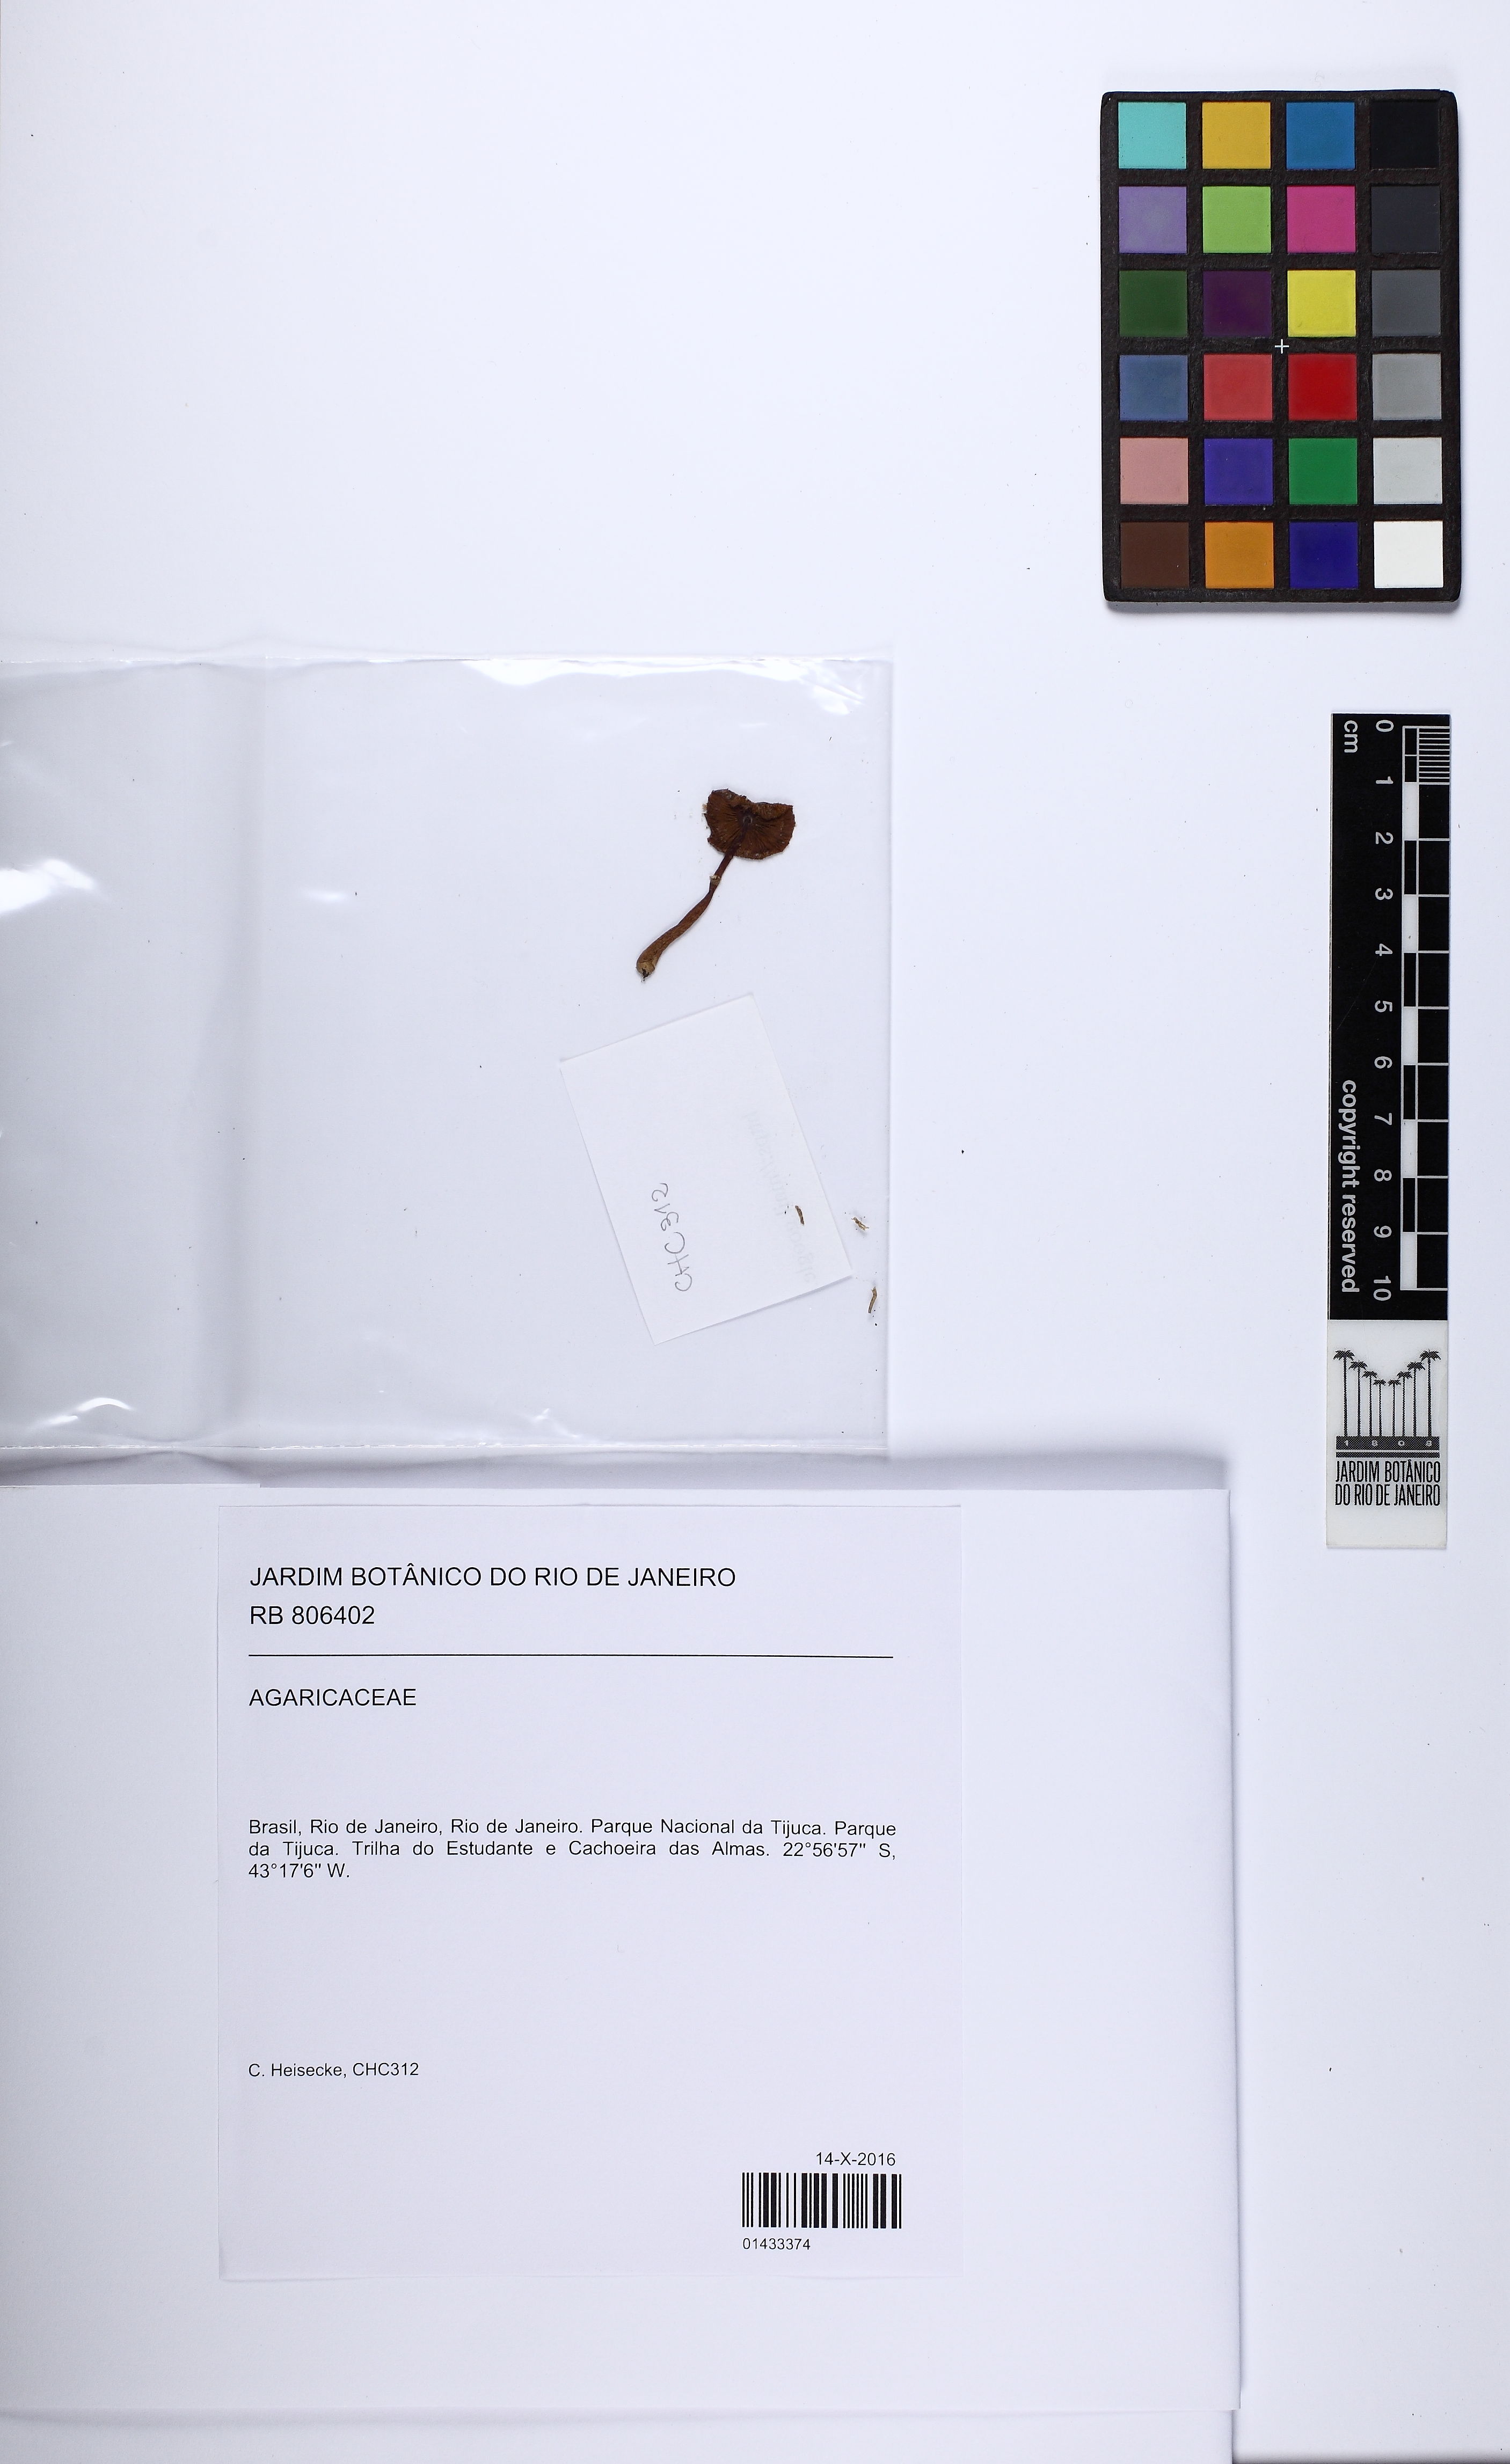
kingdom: Fungi
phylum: Basidiomycota
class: Agaricomycetes
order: Agaricales
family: Agaricaceae
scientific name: Agaricaceae
